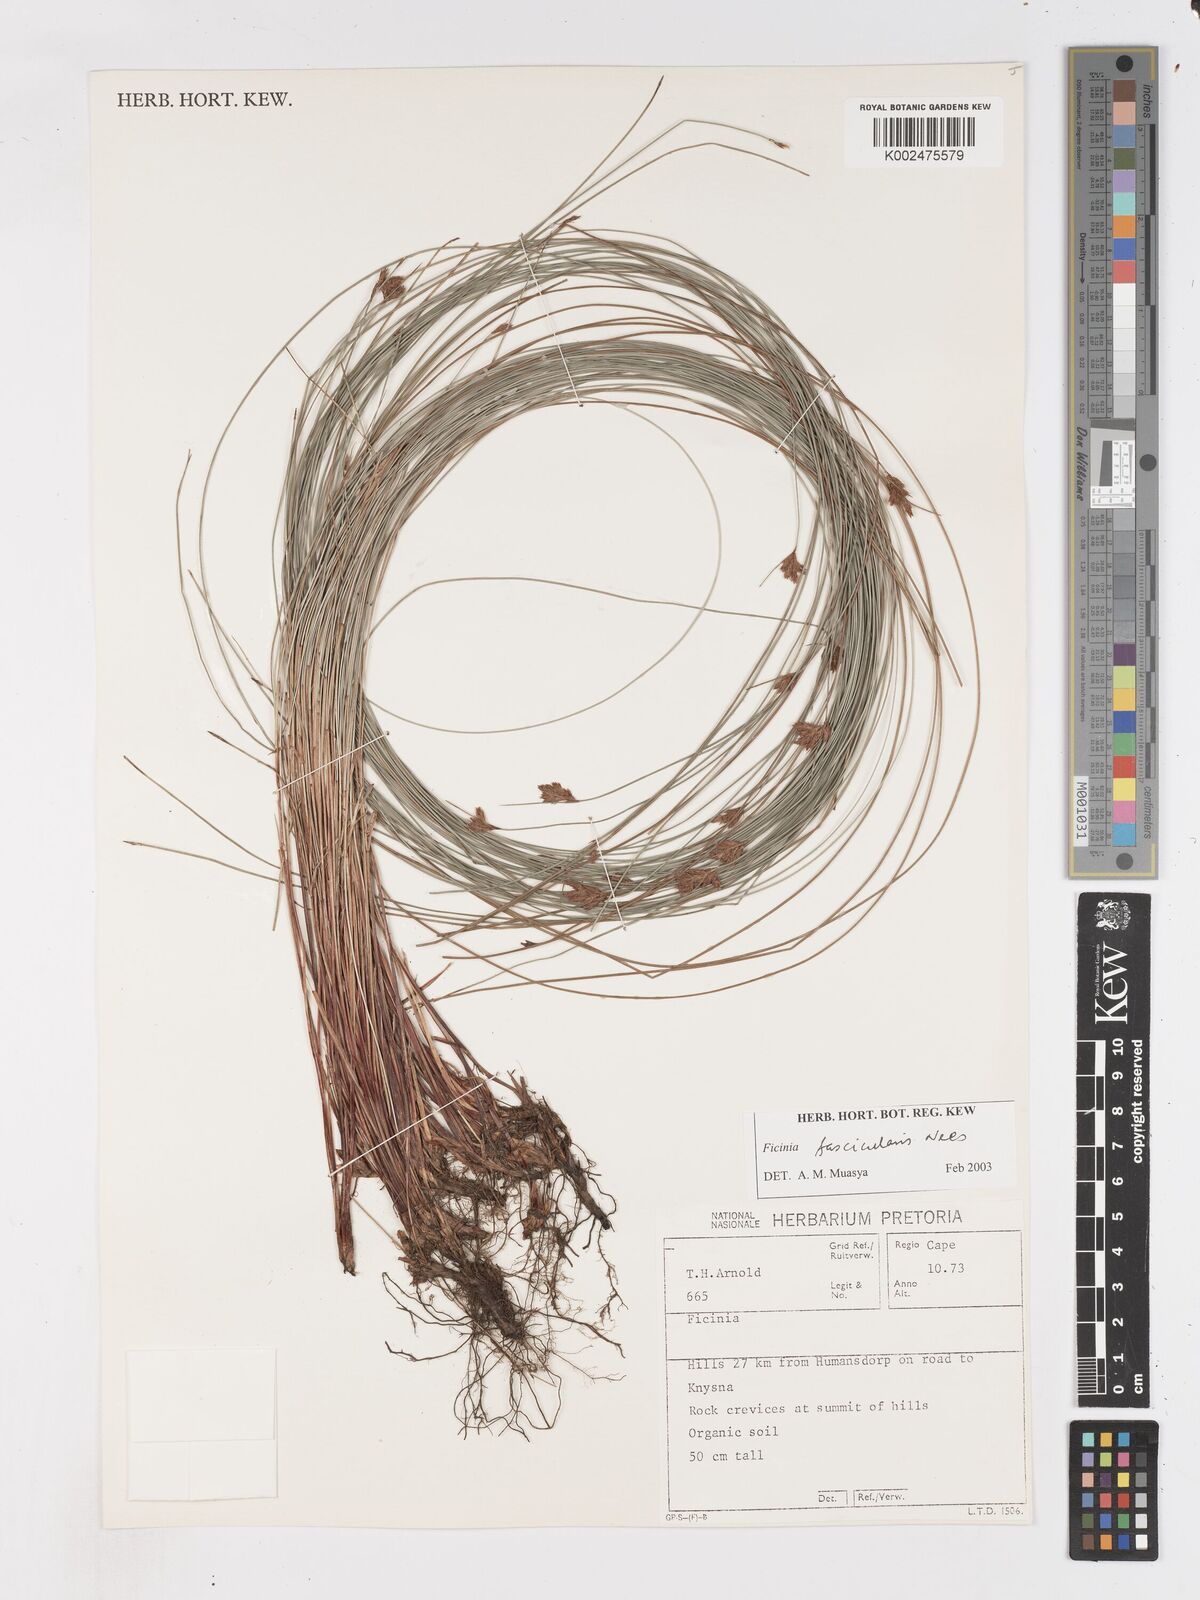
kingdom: Plantae
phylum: Tracheophyta
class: Liliopsida
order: Poales
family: Cyperaceae
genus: Ficinia
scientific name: Ficinia fascicularis
